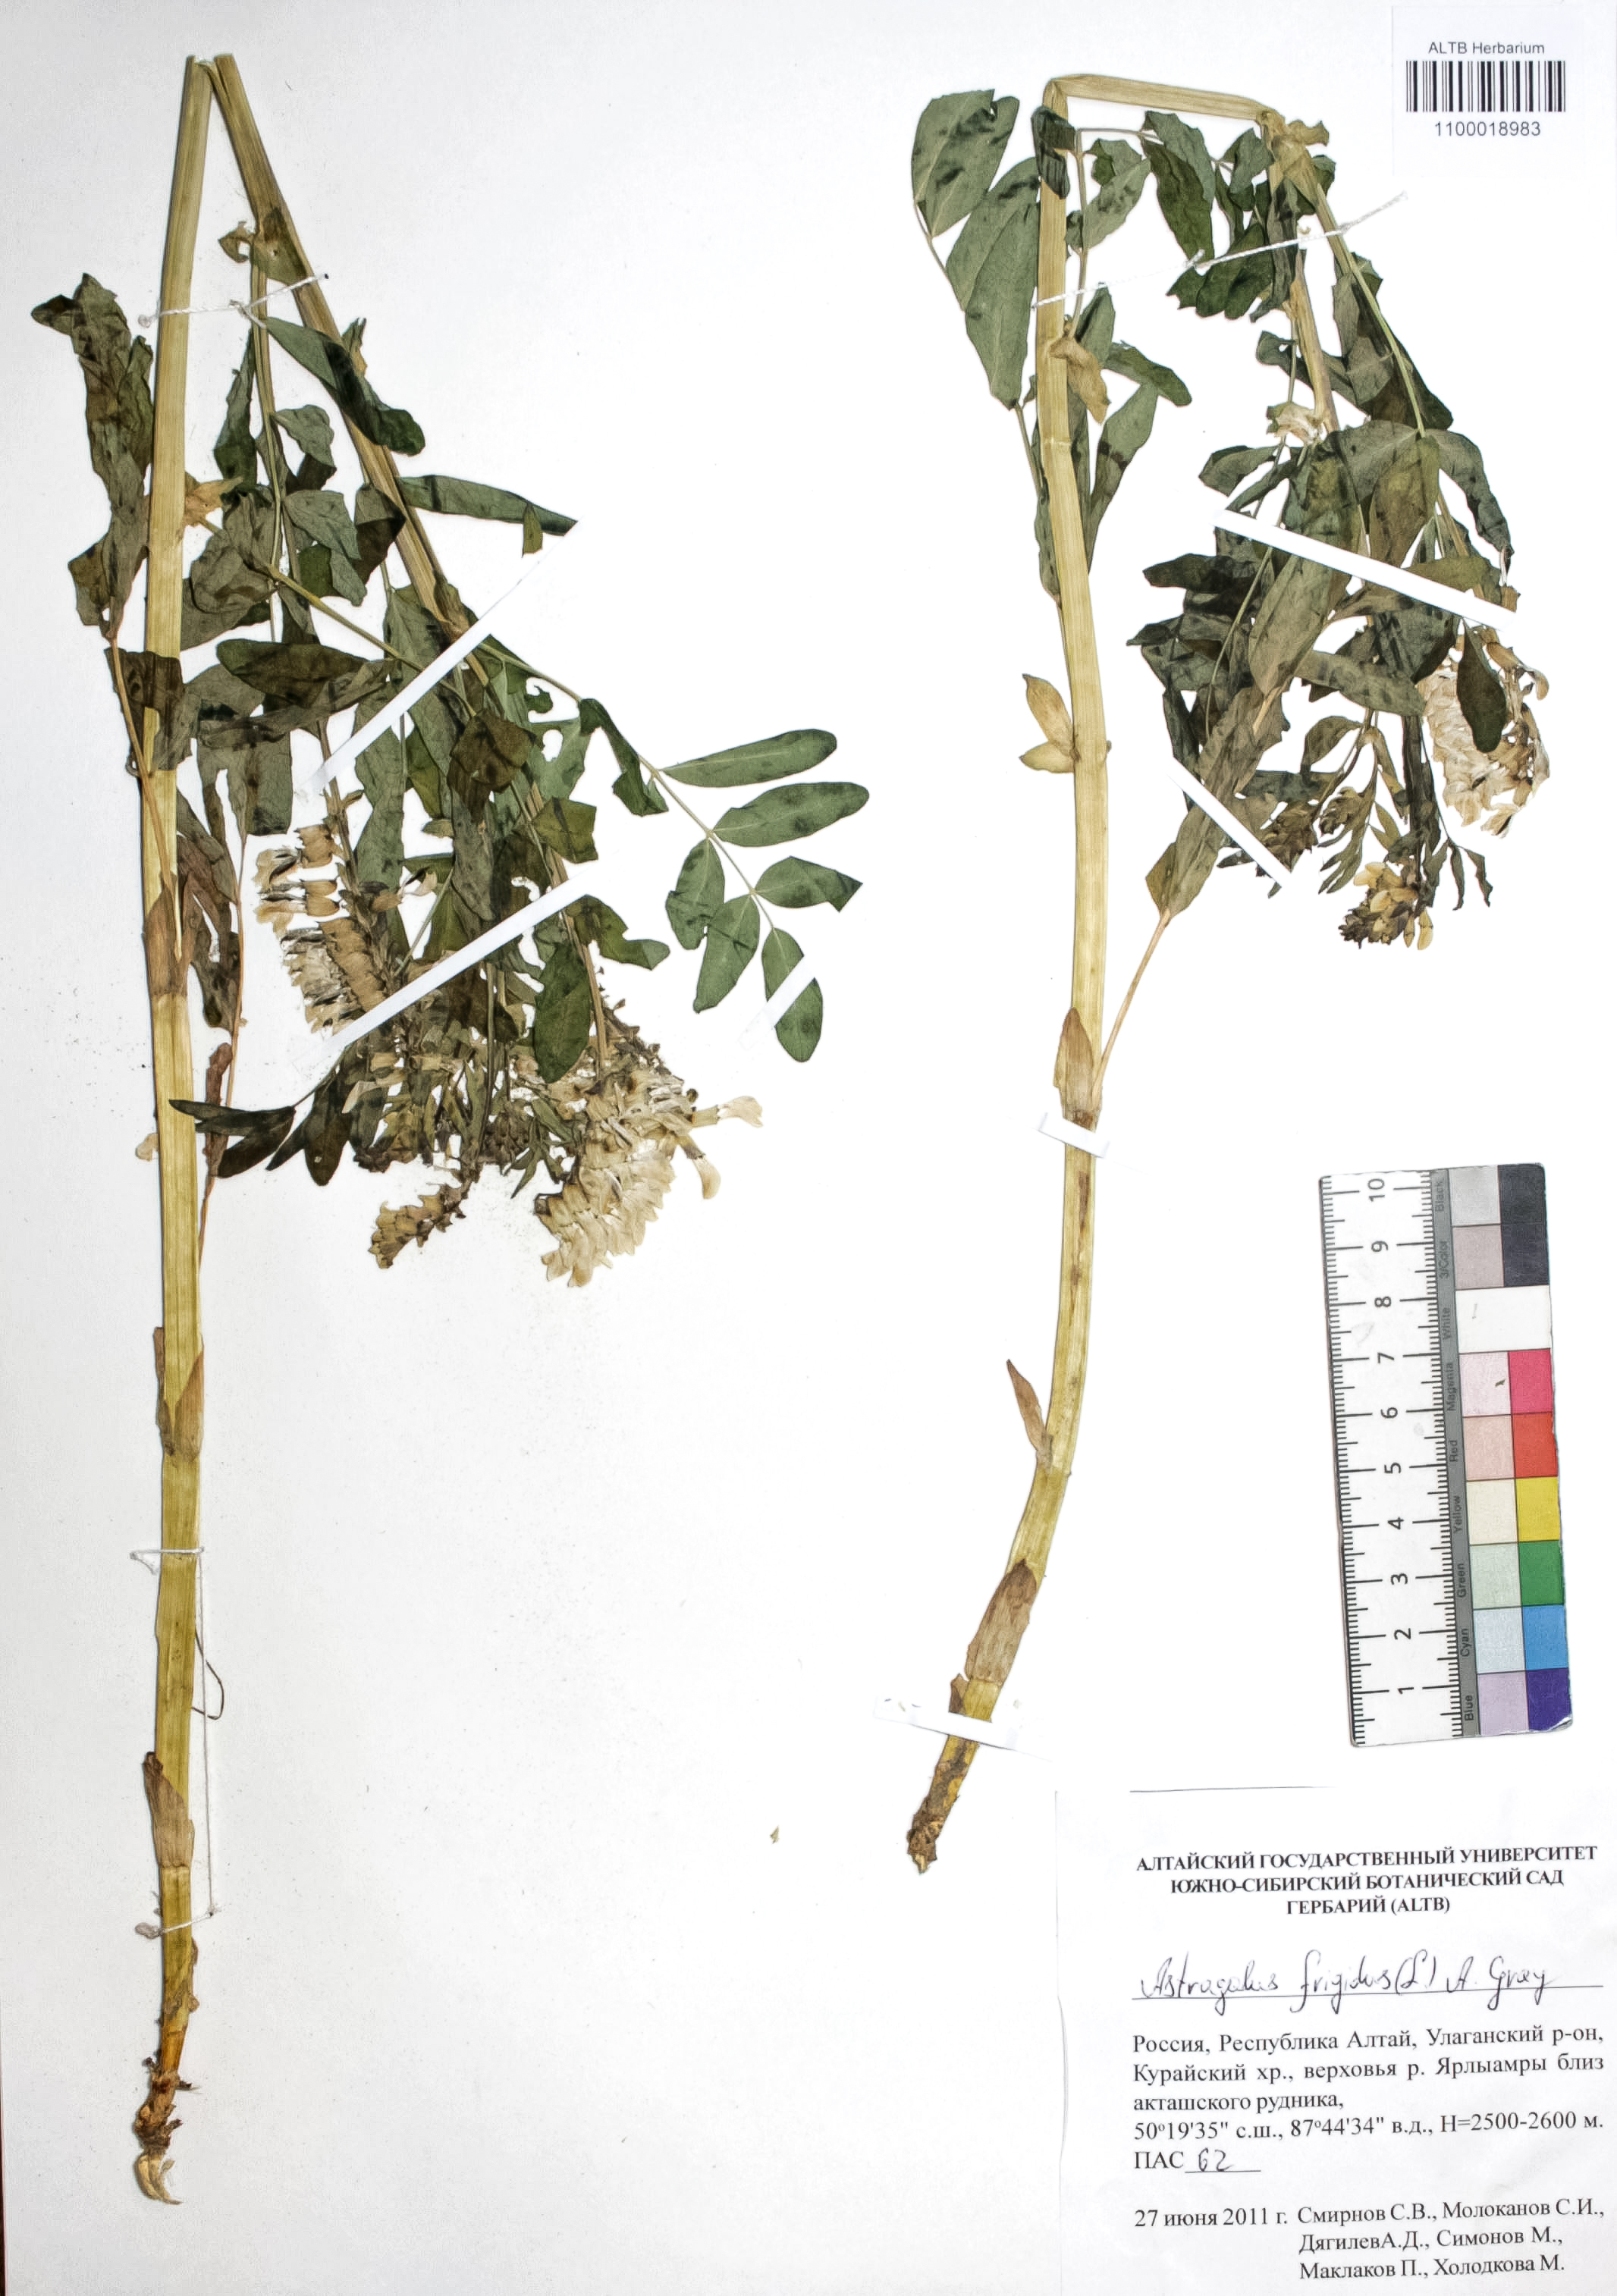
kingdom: Plantae
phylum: Tracheophyta
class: Magnoliopsida
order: Fabales
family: Fabaceae
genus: Astragalus
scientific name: Astragalus frigidus
